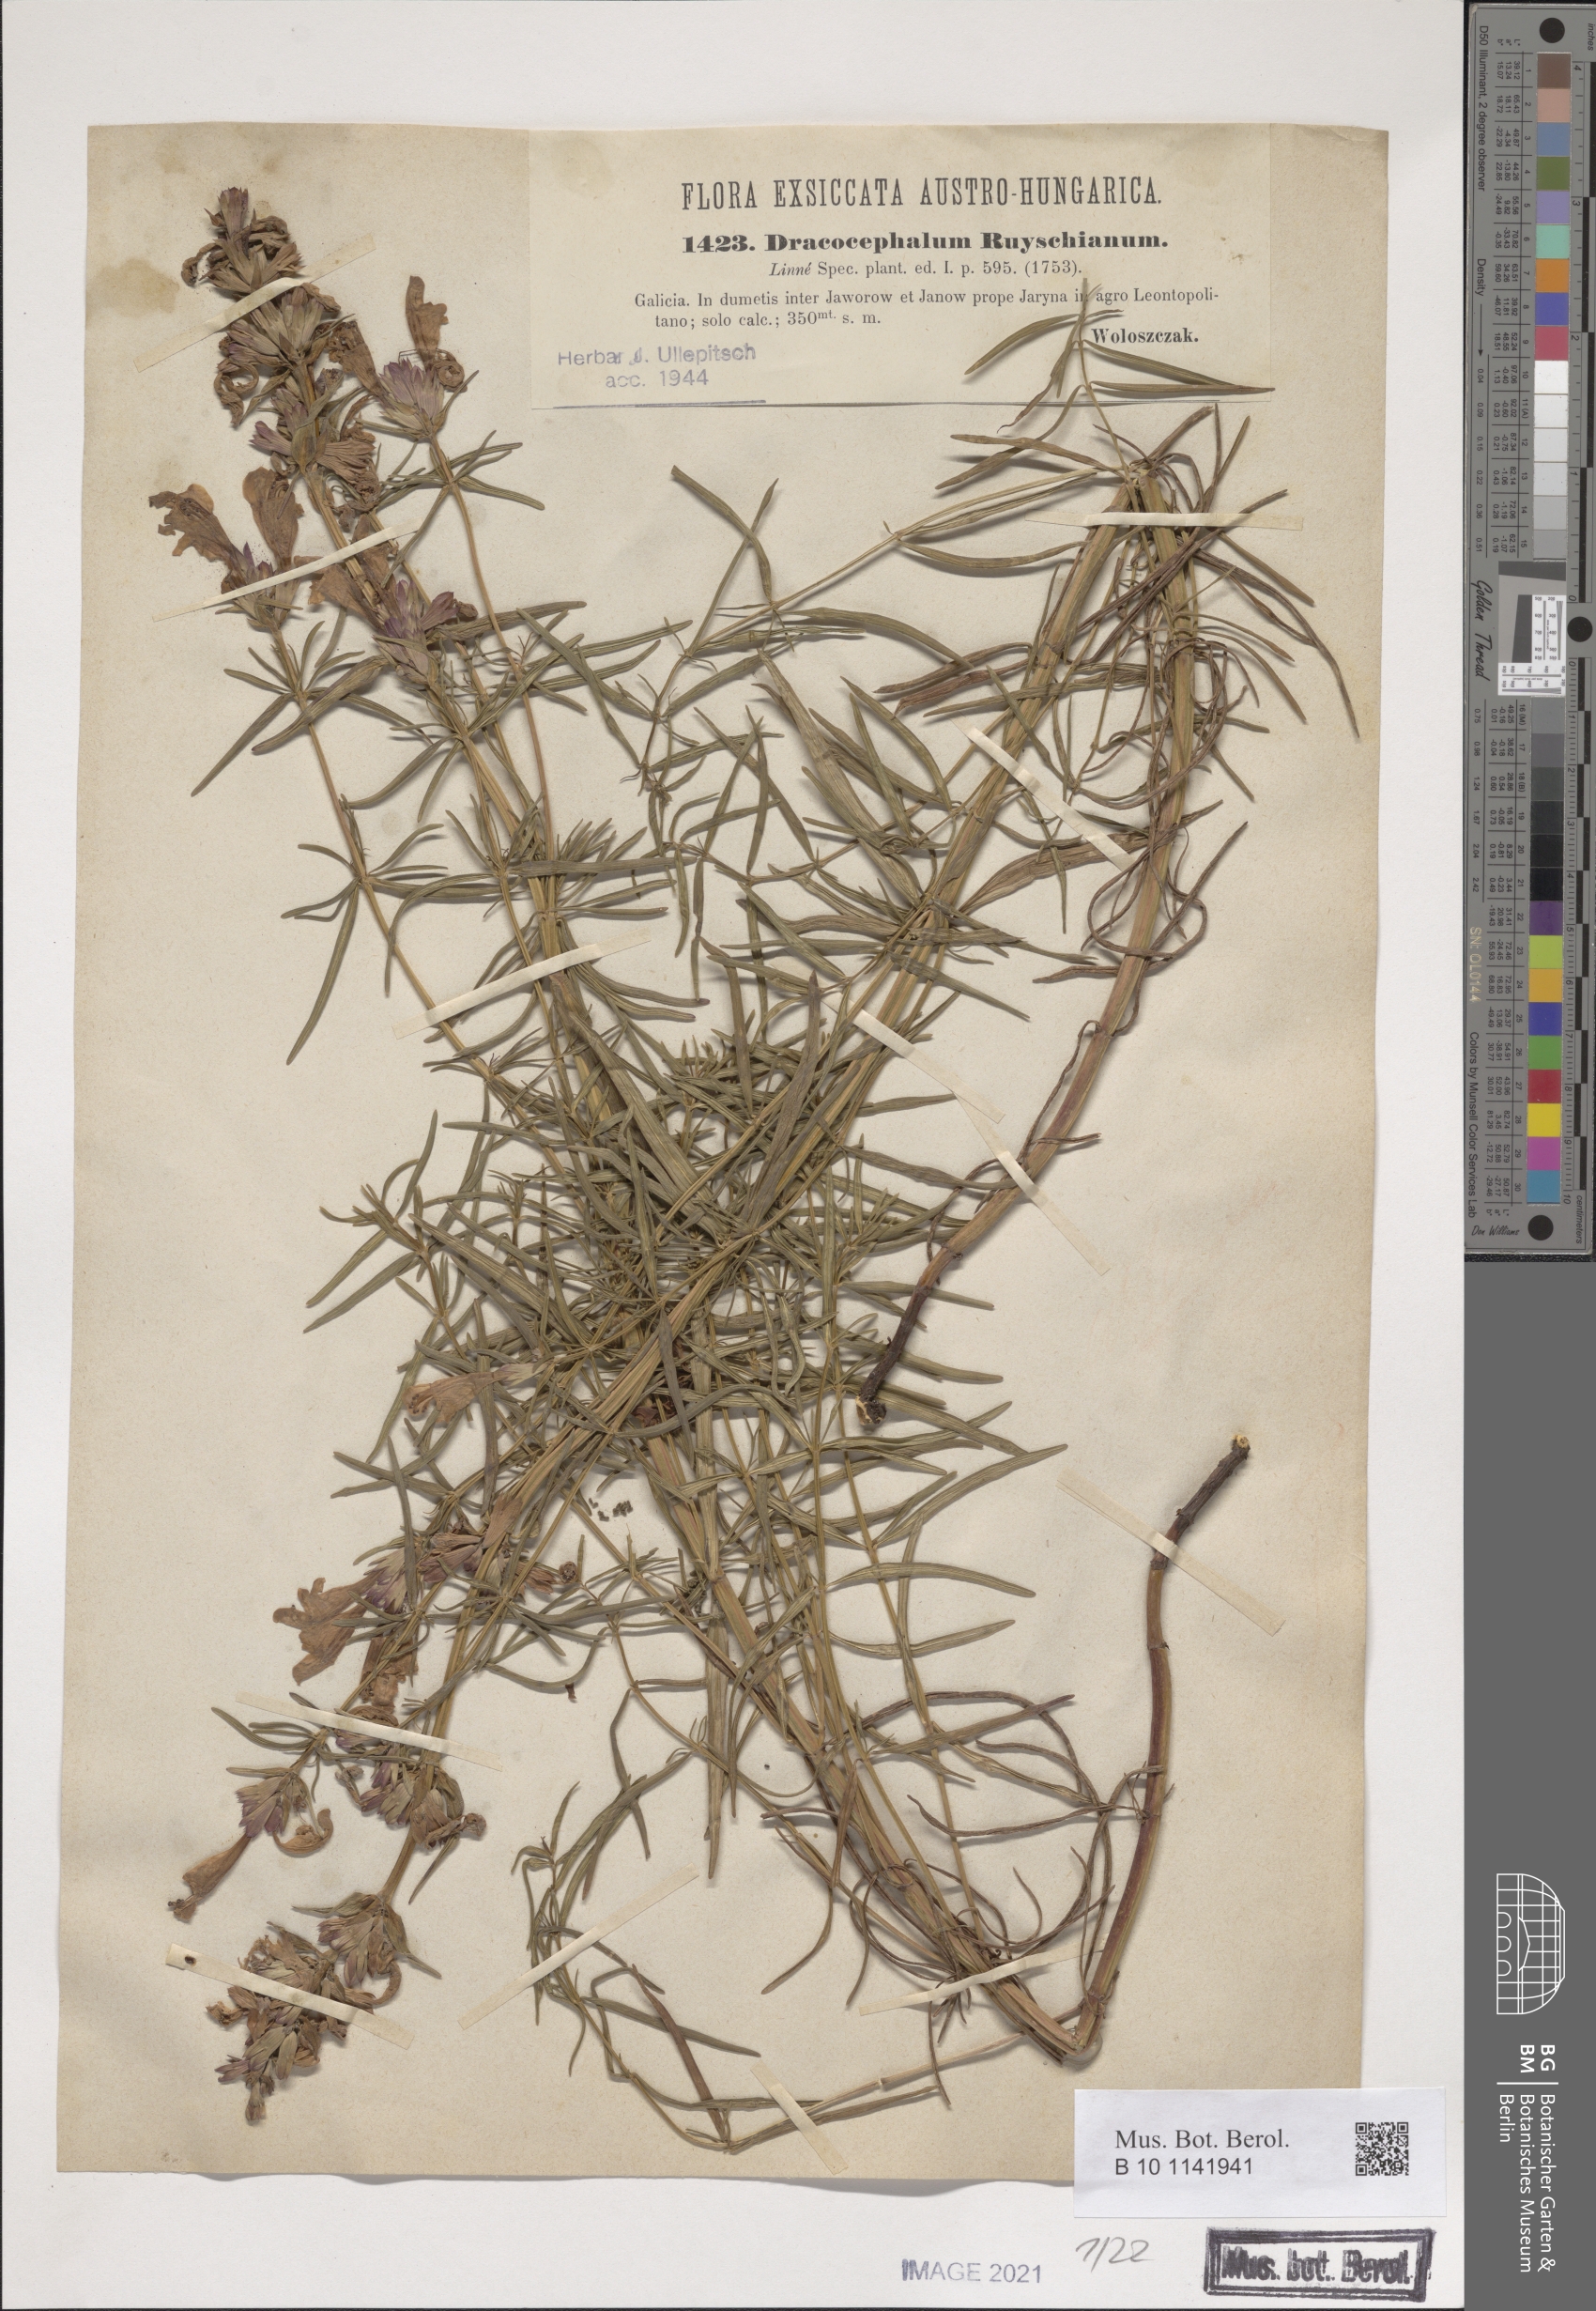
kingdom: Plantae
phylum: Tracheophyta
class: Magnoliopsida
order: Lamiales
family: Lamiaceae
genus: Dracocephalum
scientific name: Dracocephalum ruyschiana
